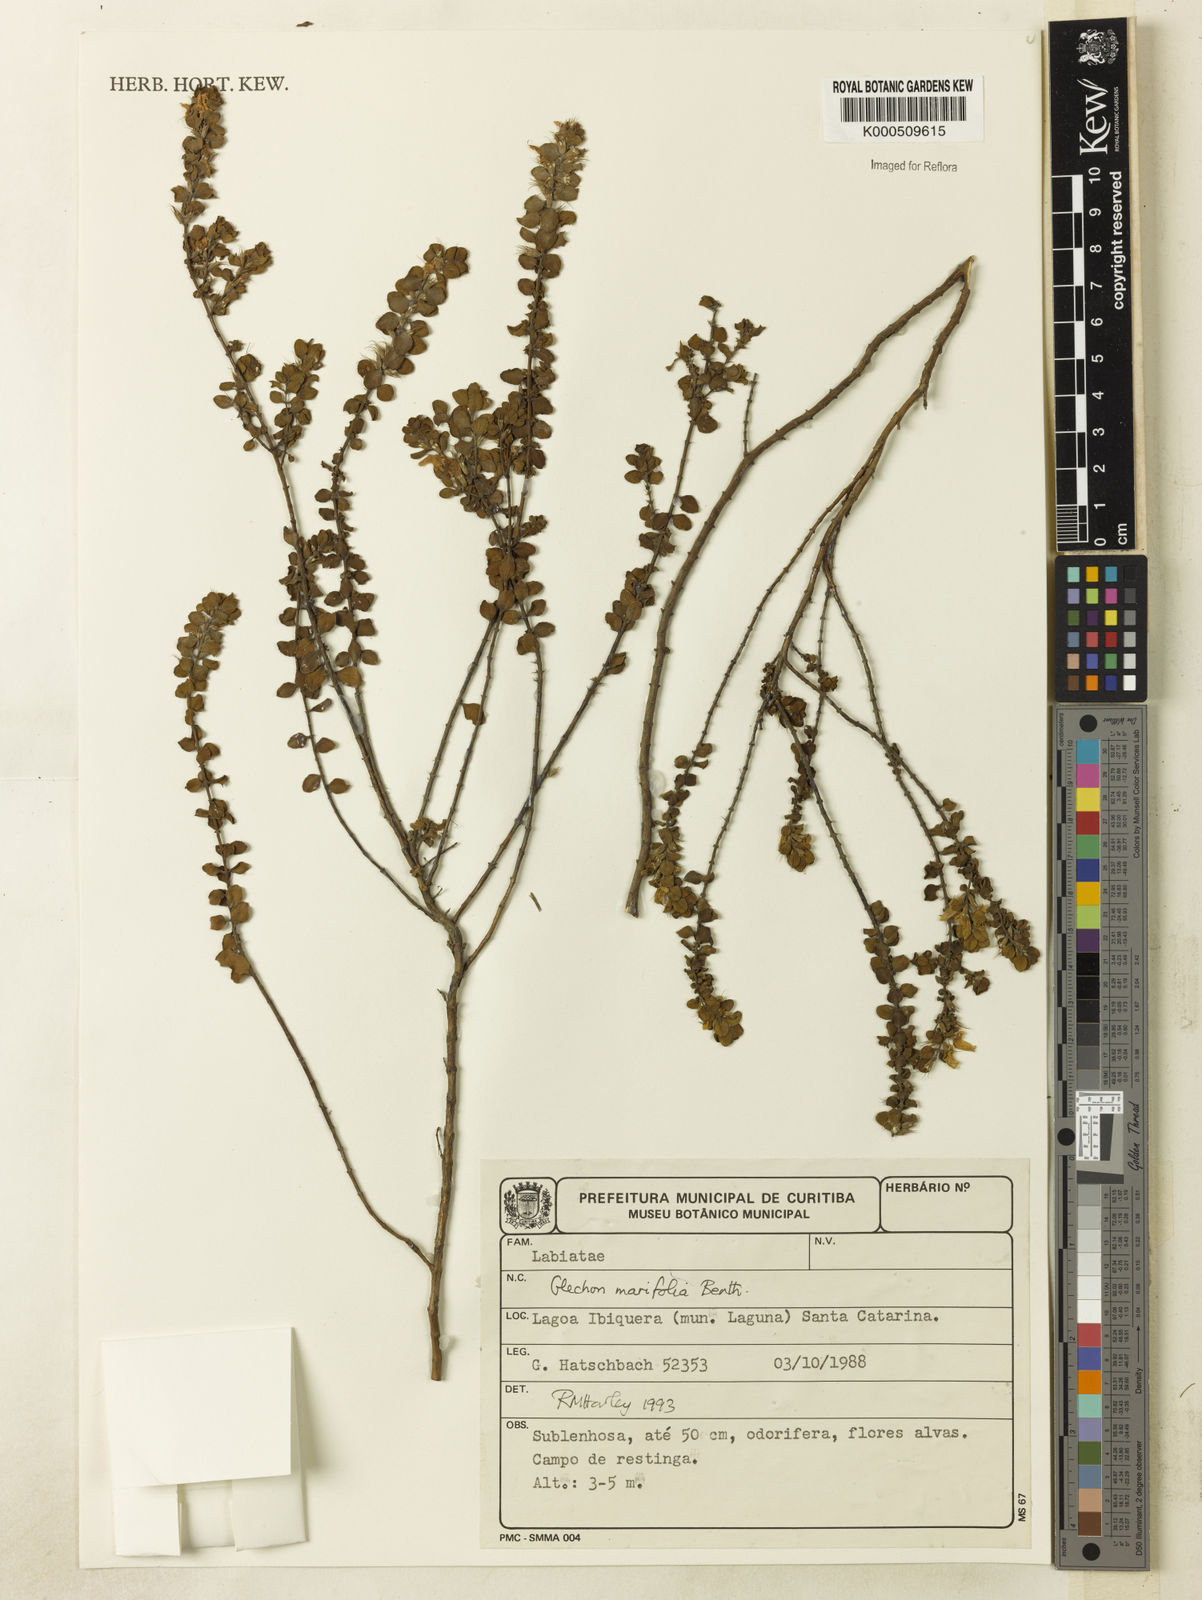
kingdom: Plantae
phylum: Tracheophyta
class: Magnoliopsida
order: Lamiales
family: Lamiaceae
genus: Glechon
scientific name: Glechon ciliata
